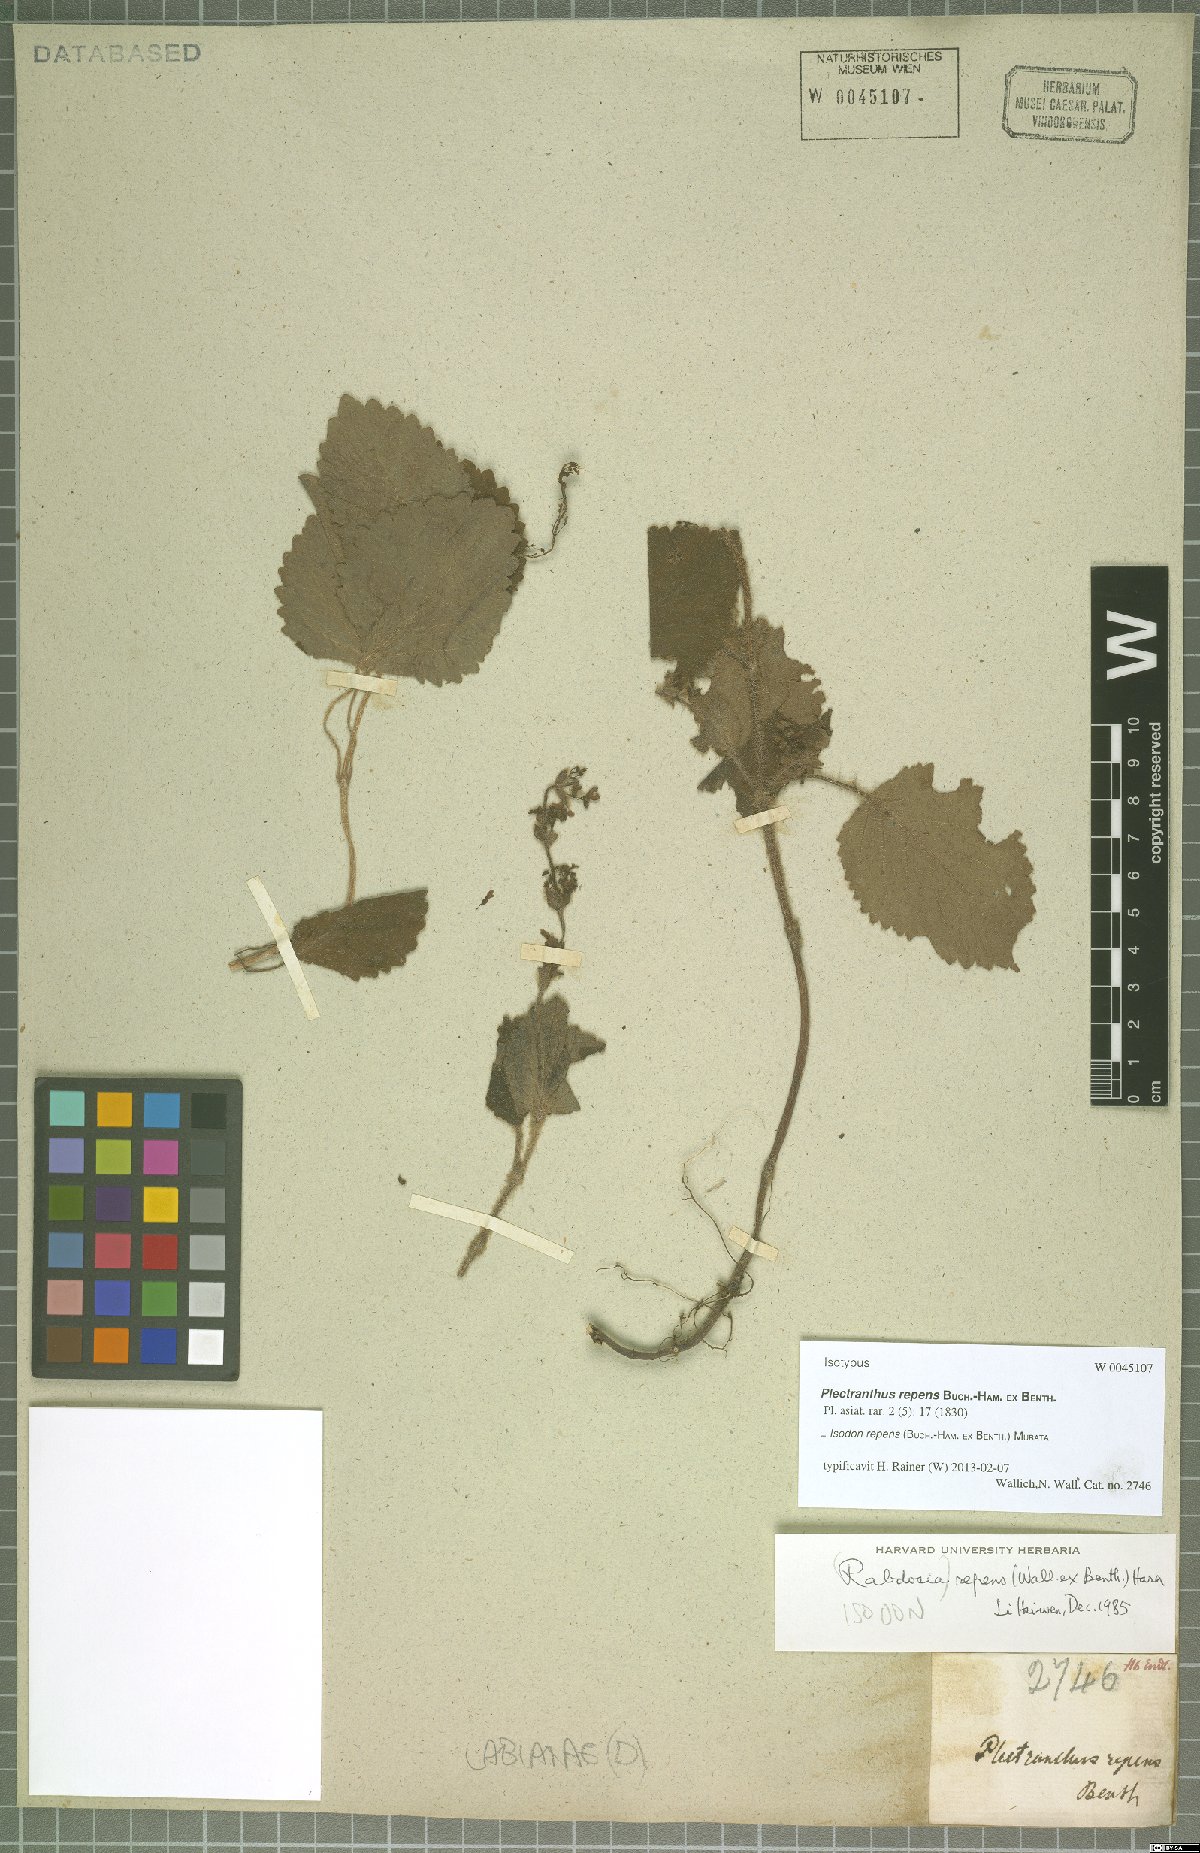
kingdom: Plantae
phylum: Tracheophyta
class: Magnoliopsida
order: Lamiales
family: Lamiaceae
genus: Isodon
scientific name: Isodon repens
